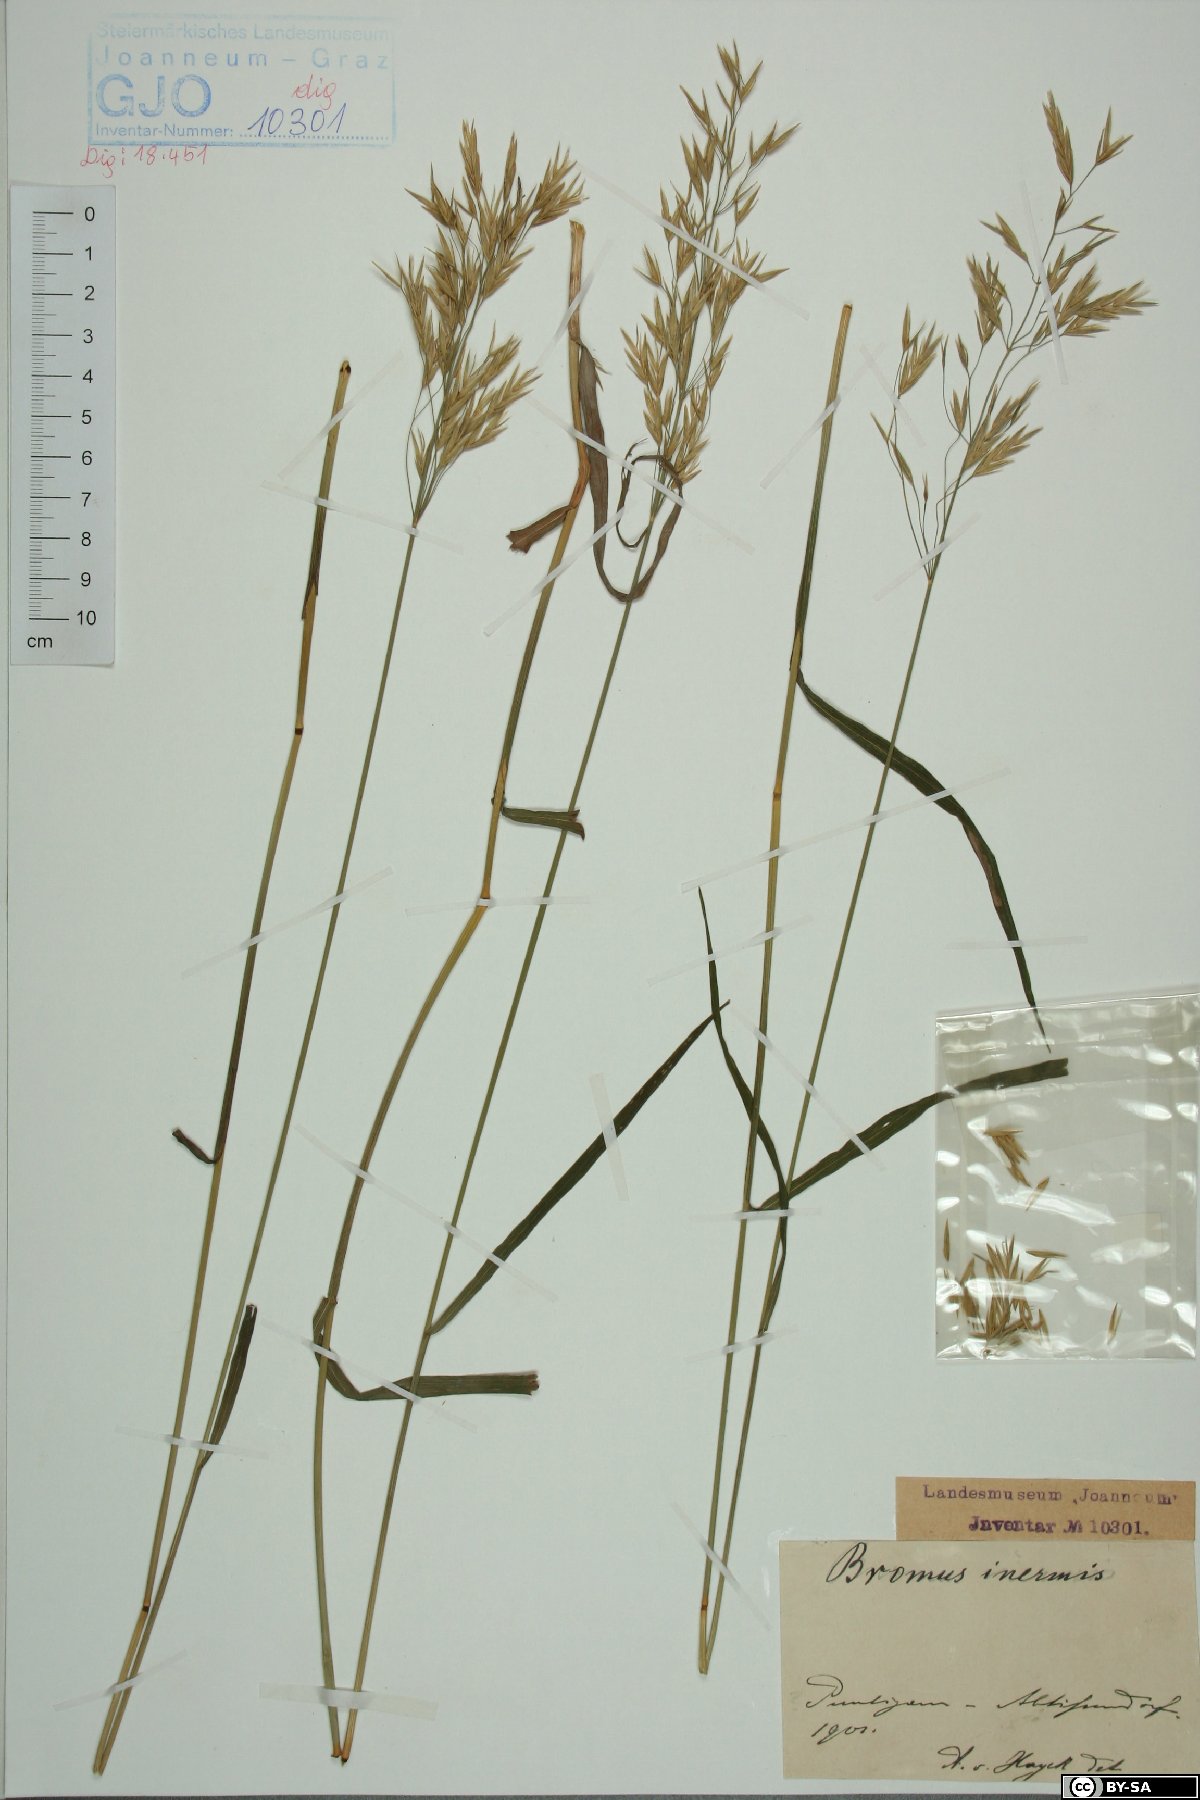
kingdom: Plantae
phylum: Tracheophyta
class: Liliopsida
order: Poales
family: Poaceae
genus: Bromus
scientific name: Bromus inermis
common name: Smooth brome
